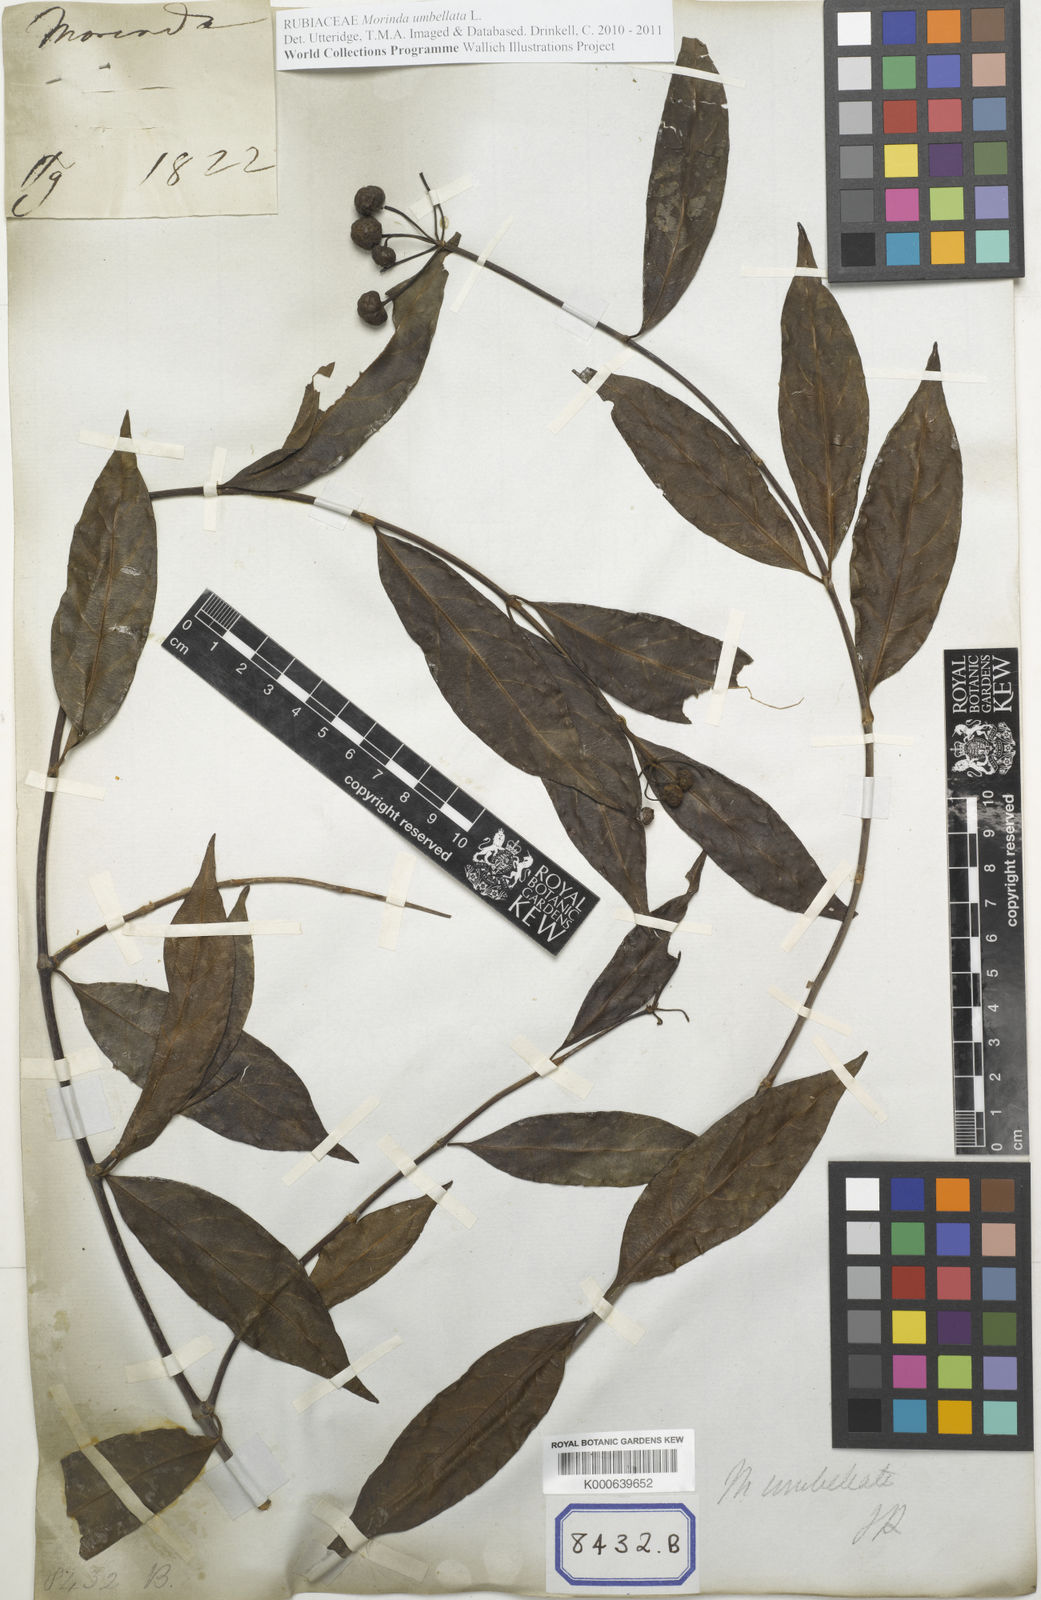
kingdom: Plantae
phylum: Tracheophyta
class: Magnoliopsida
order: Gentianales
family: Rubiaceae
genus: Gynochthodes
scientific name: Gynochthodes umbellata
